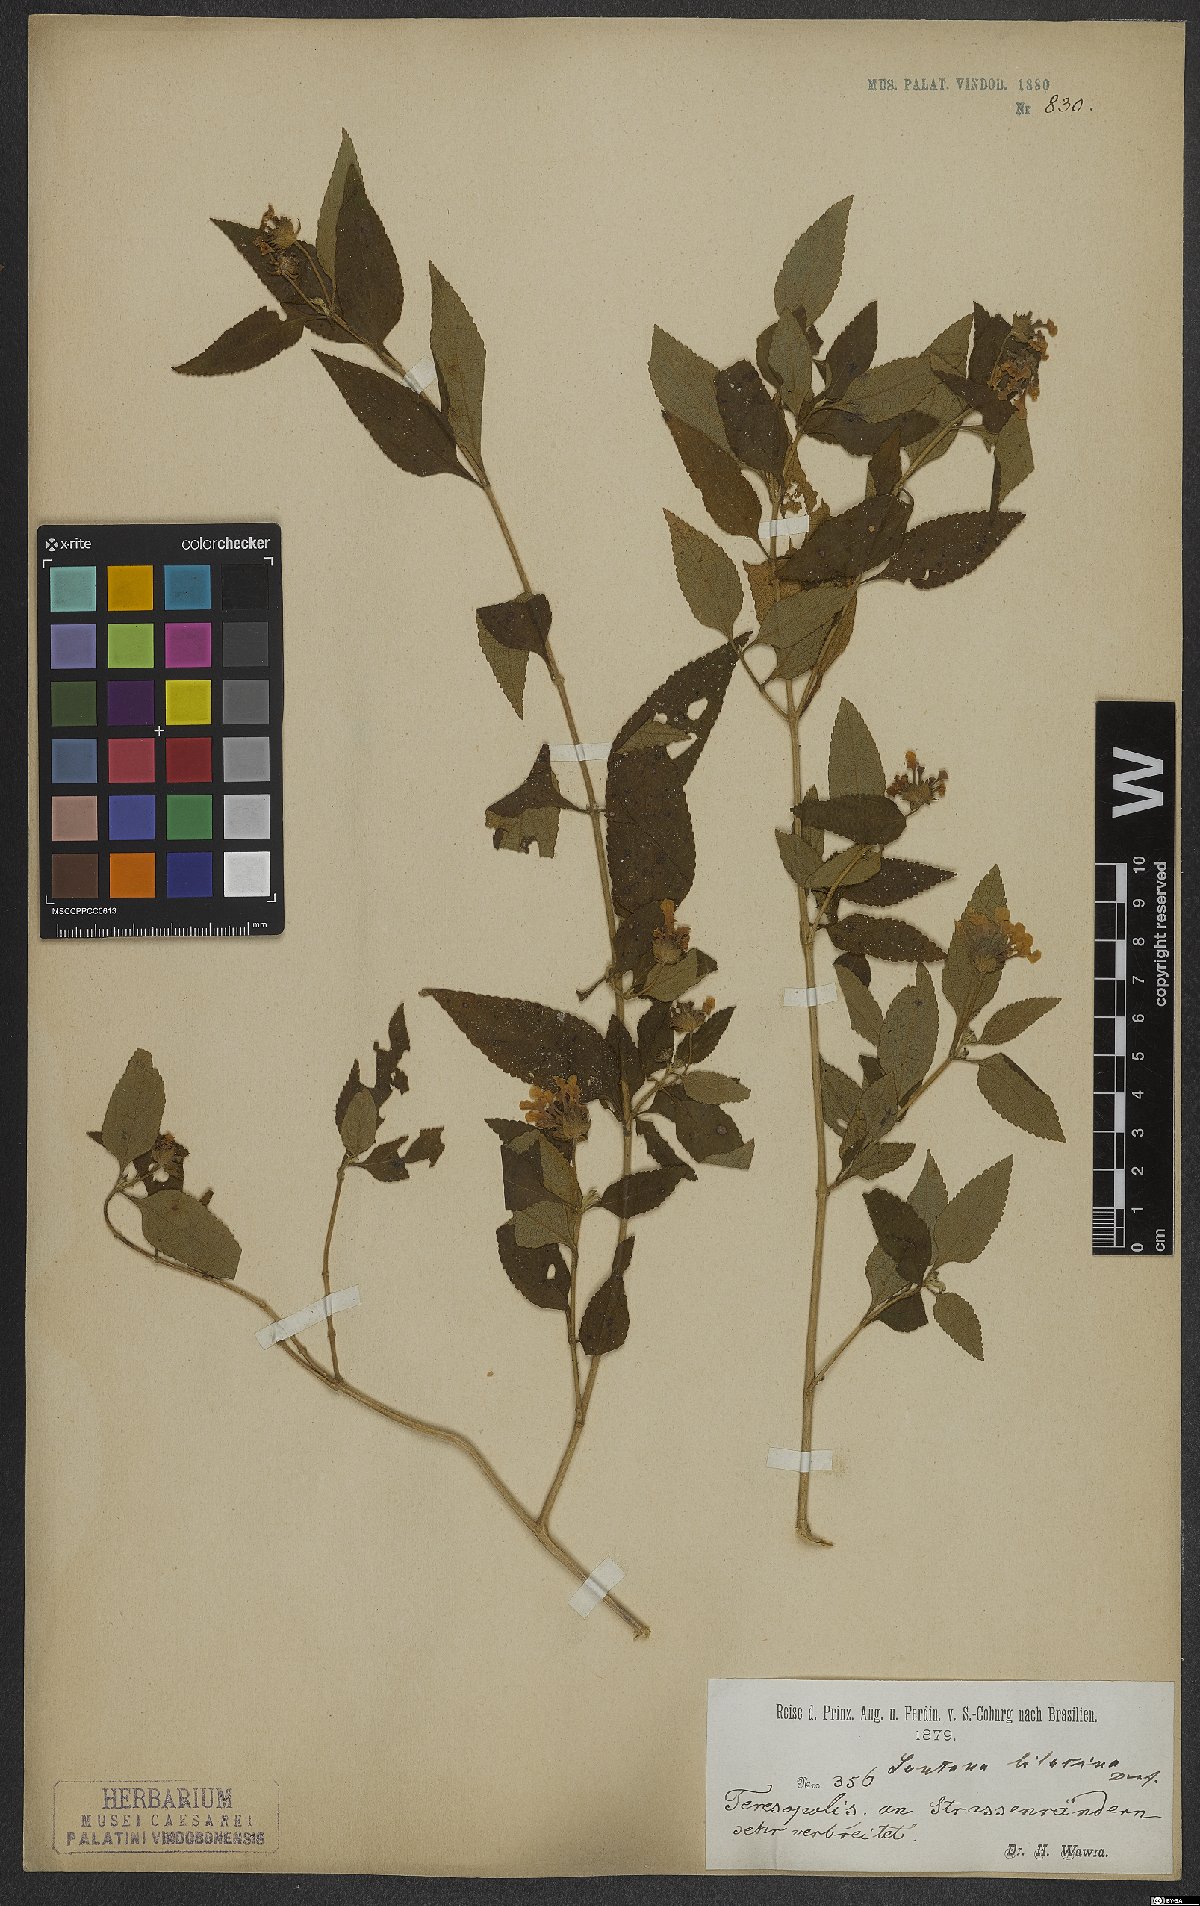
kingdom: Plantae
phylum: Tracheophyta
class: Magnoliopsida
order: Lamiales
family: Verbenaceae
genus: Lantana
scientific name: Lantana fucata
